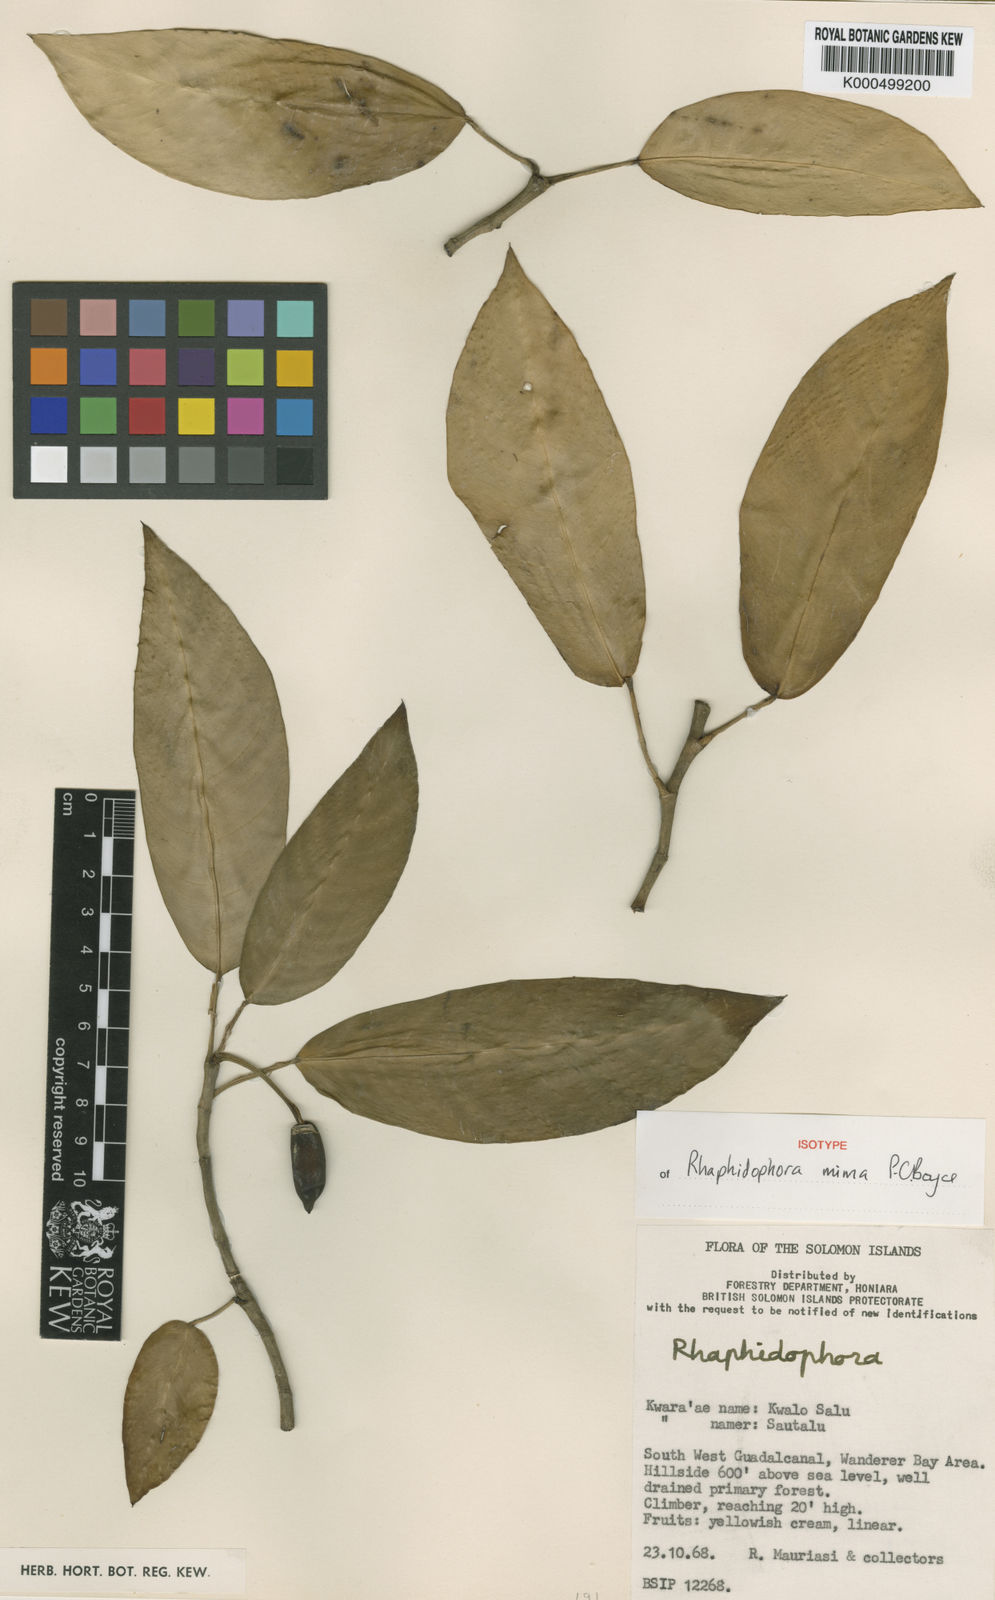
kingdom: Plantae
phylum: Tracheophyta
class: Liliopsida
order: Alismatales
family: Araceae
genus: Rhaphidophora
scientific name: Rhaphidophora
